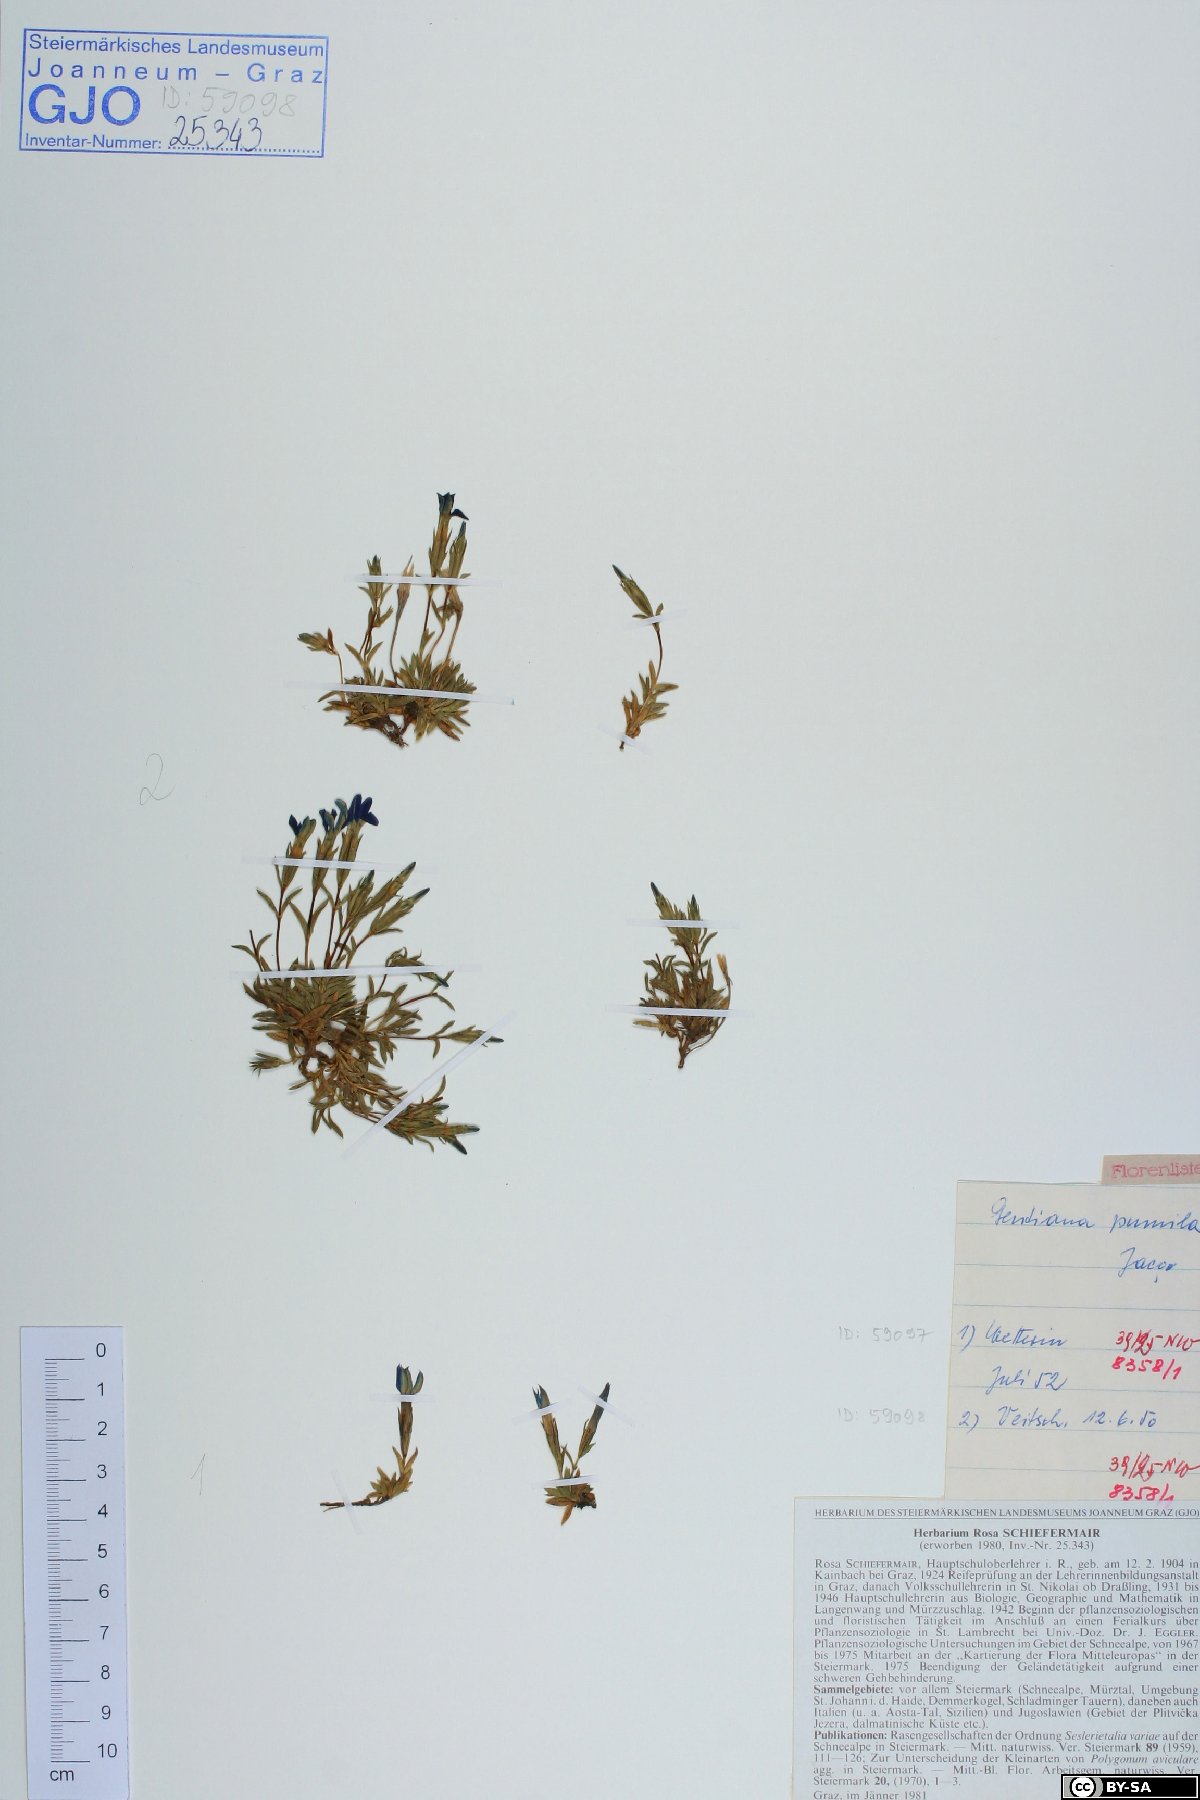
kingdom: Plantae
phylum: Tracheophyta
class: Magnoliopsida
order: Gentianales
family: Gentianaceae
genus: Gentiana
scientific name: Gentiana pumila
